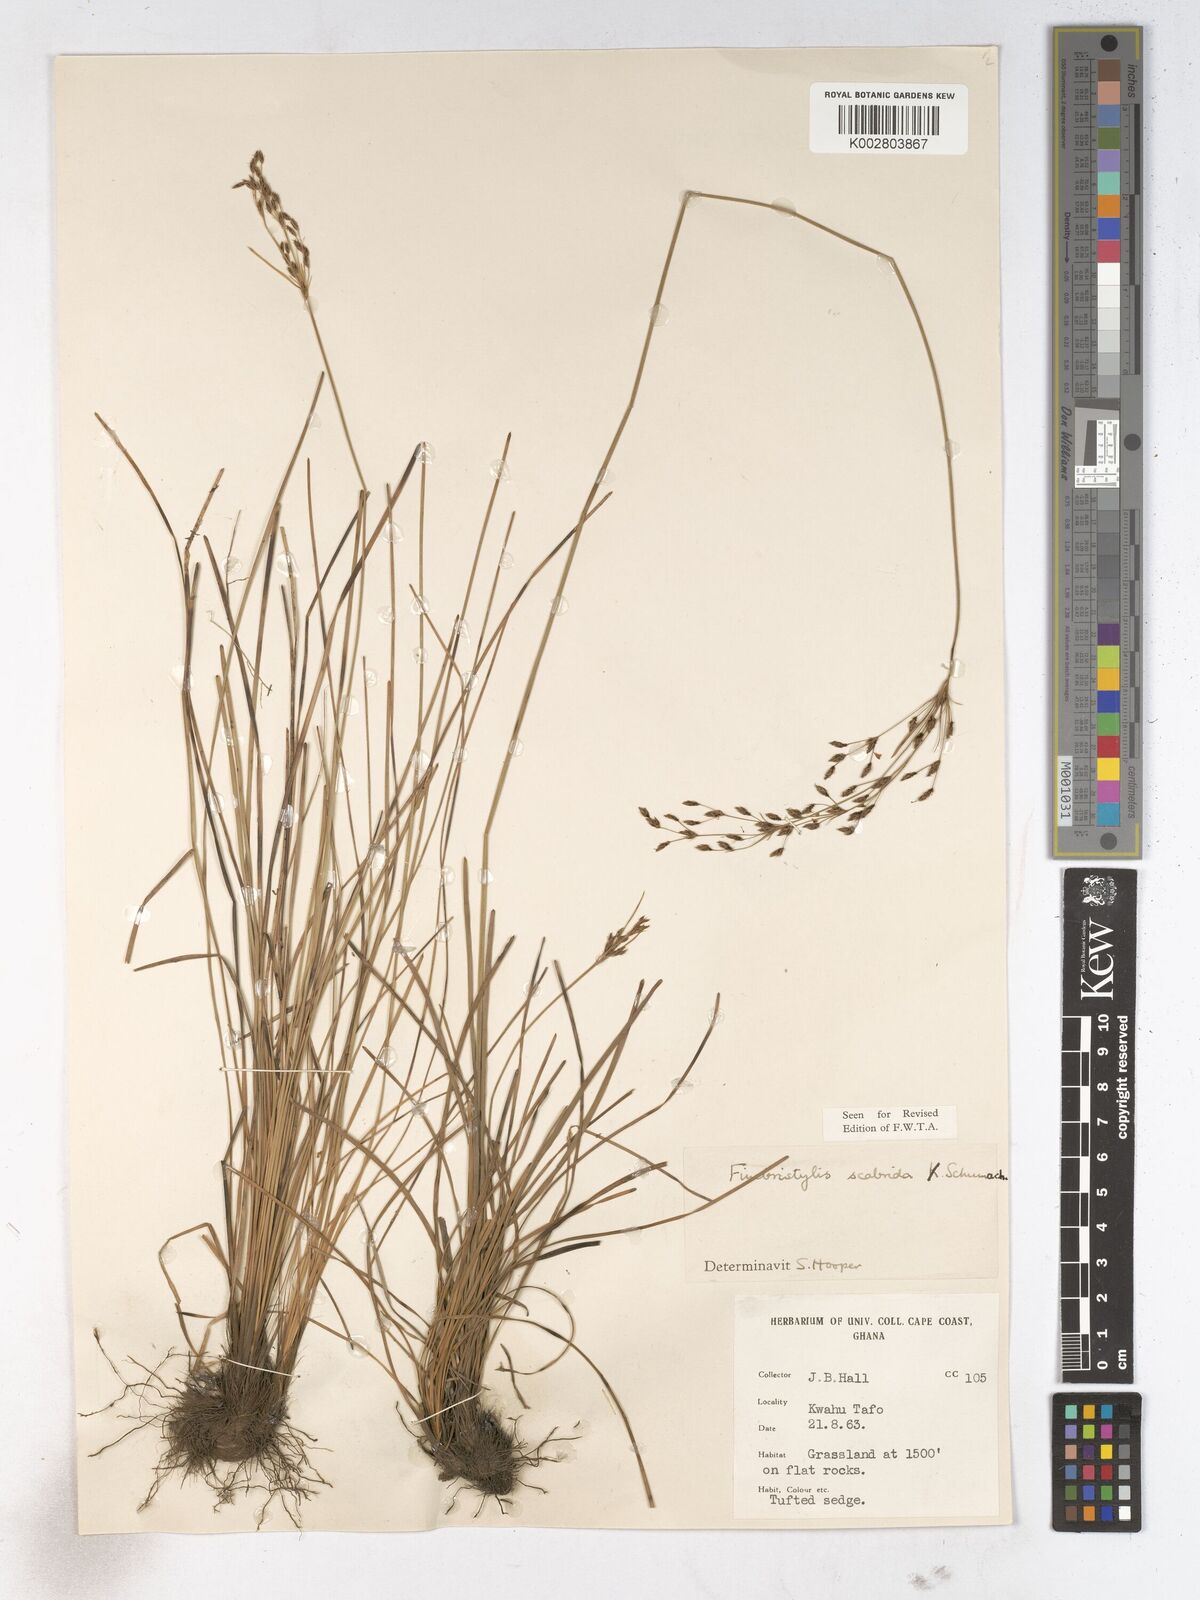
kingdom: Plantae
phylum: Tracheophyta
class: Liliopsida
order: Poales
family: Cyperaceae
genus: Fimbristylis
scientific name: Fimbristylis scabrida
